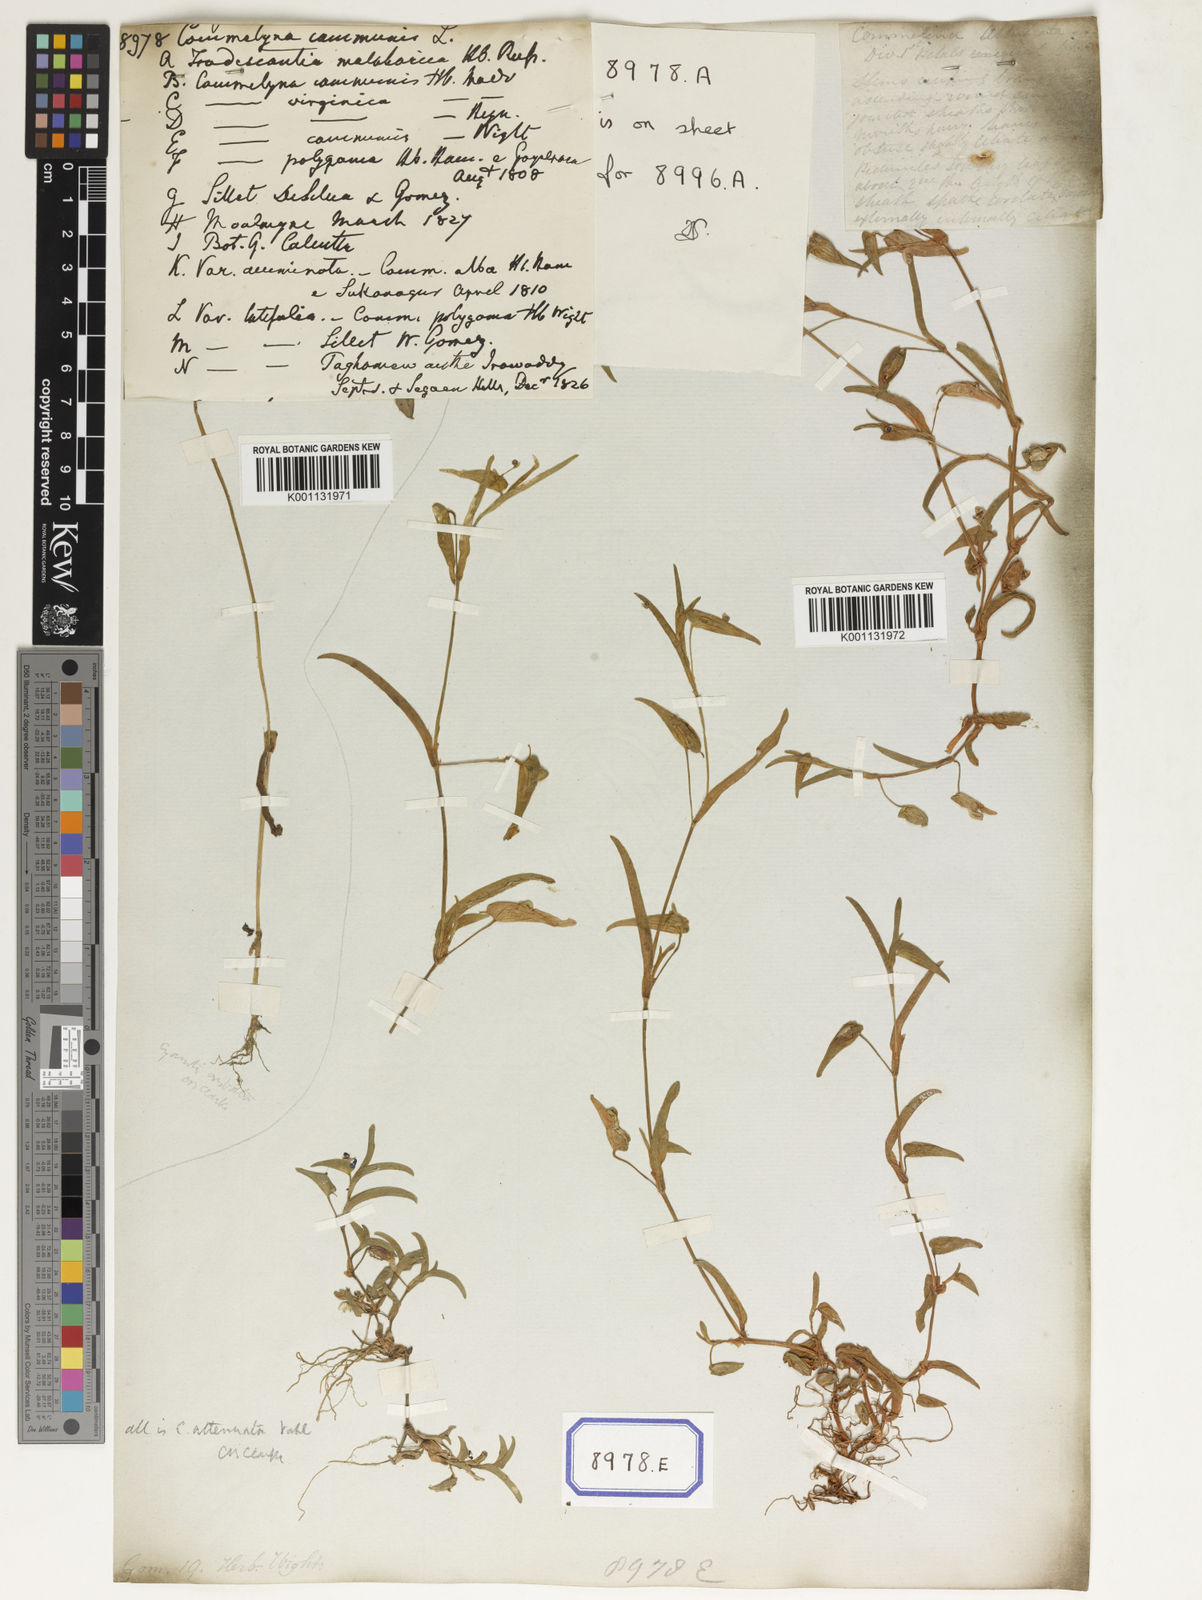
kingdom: Plantae
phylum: Tracheophyta
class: Liliopsida
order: Commelinales
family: Commelinaceae
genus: Commelina
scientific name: Commelina communis
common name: Asiatic dayflower
